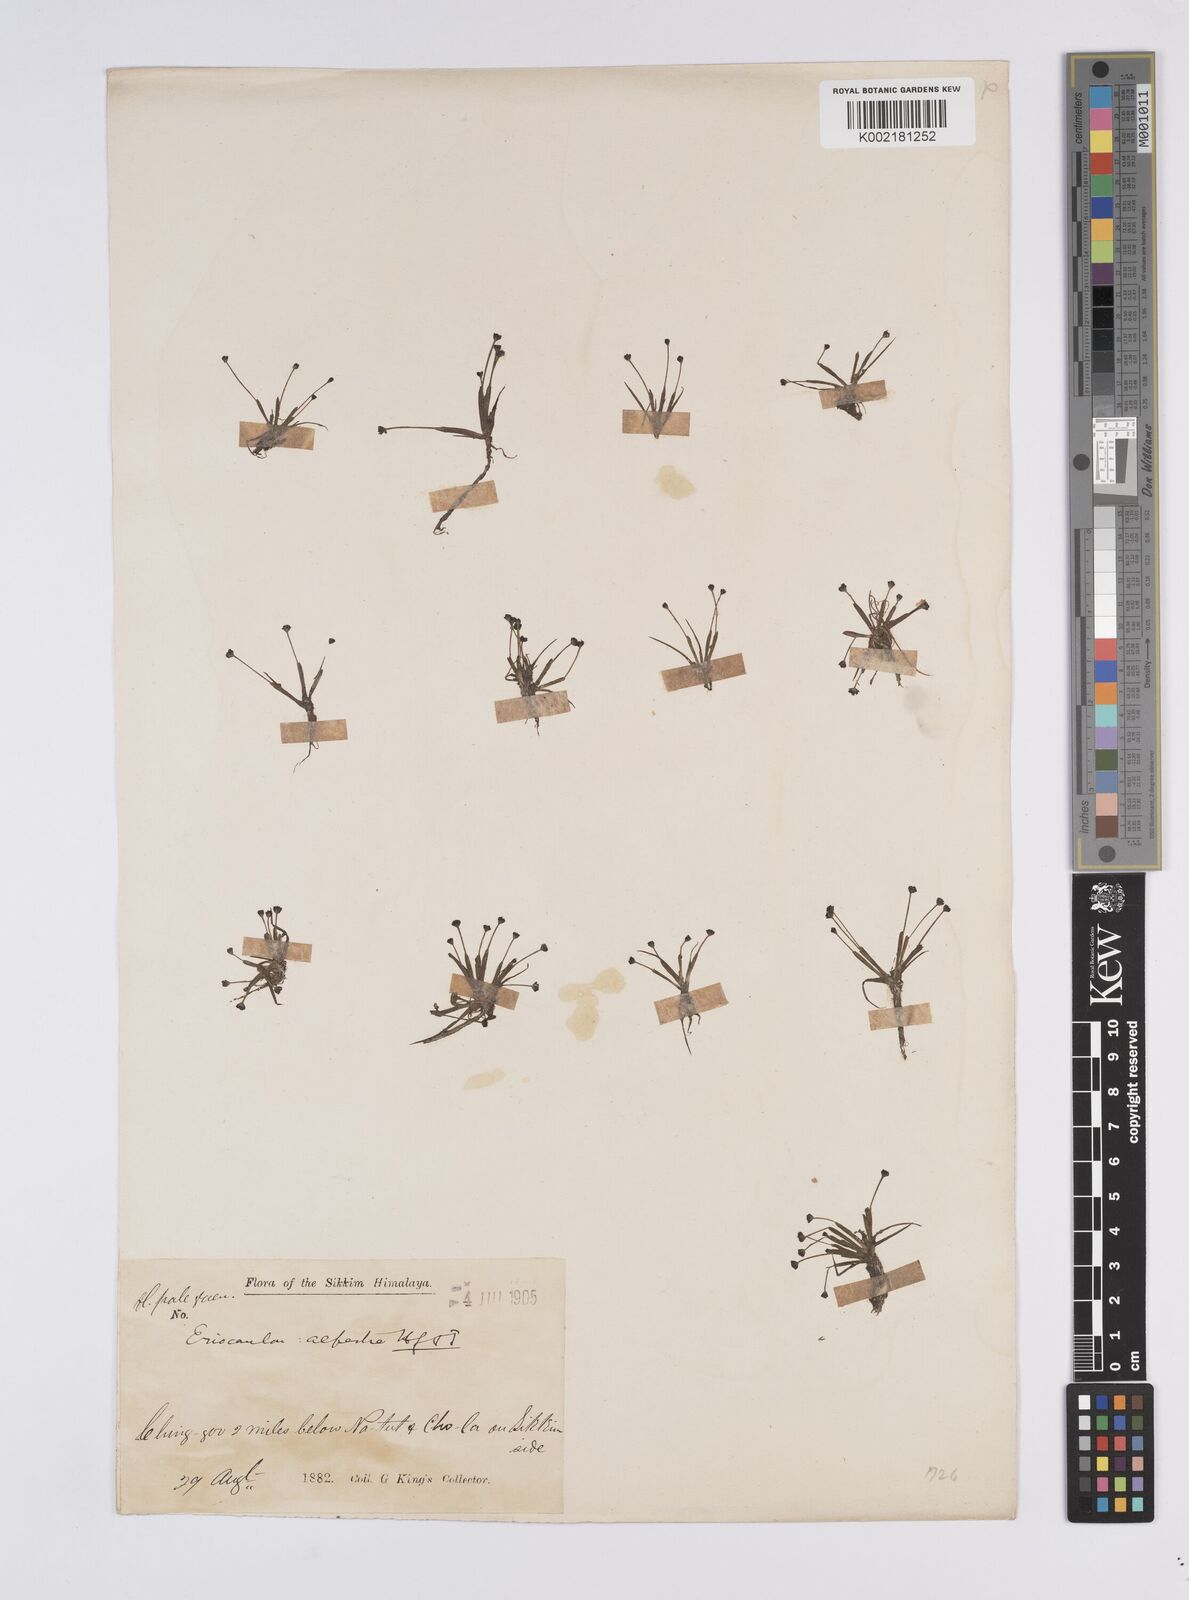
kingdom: Plantae
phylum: Tracheophyta
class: Liliopsida
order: Poales
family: Eriocaulaceae
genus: Eriocaulon
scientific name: Eriocaulon alpestre
